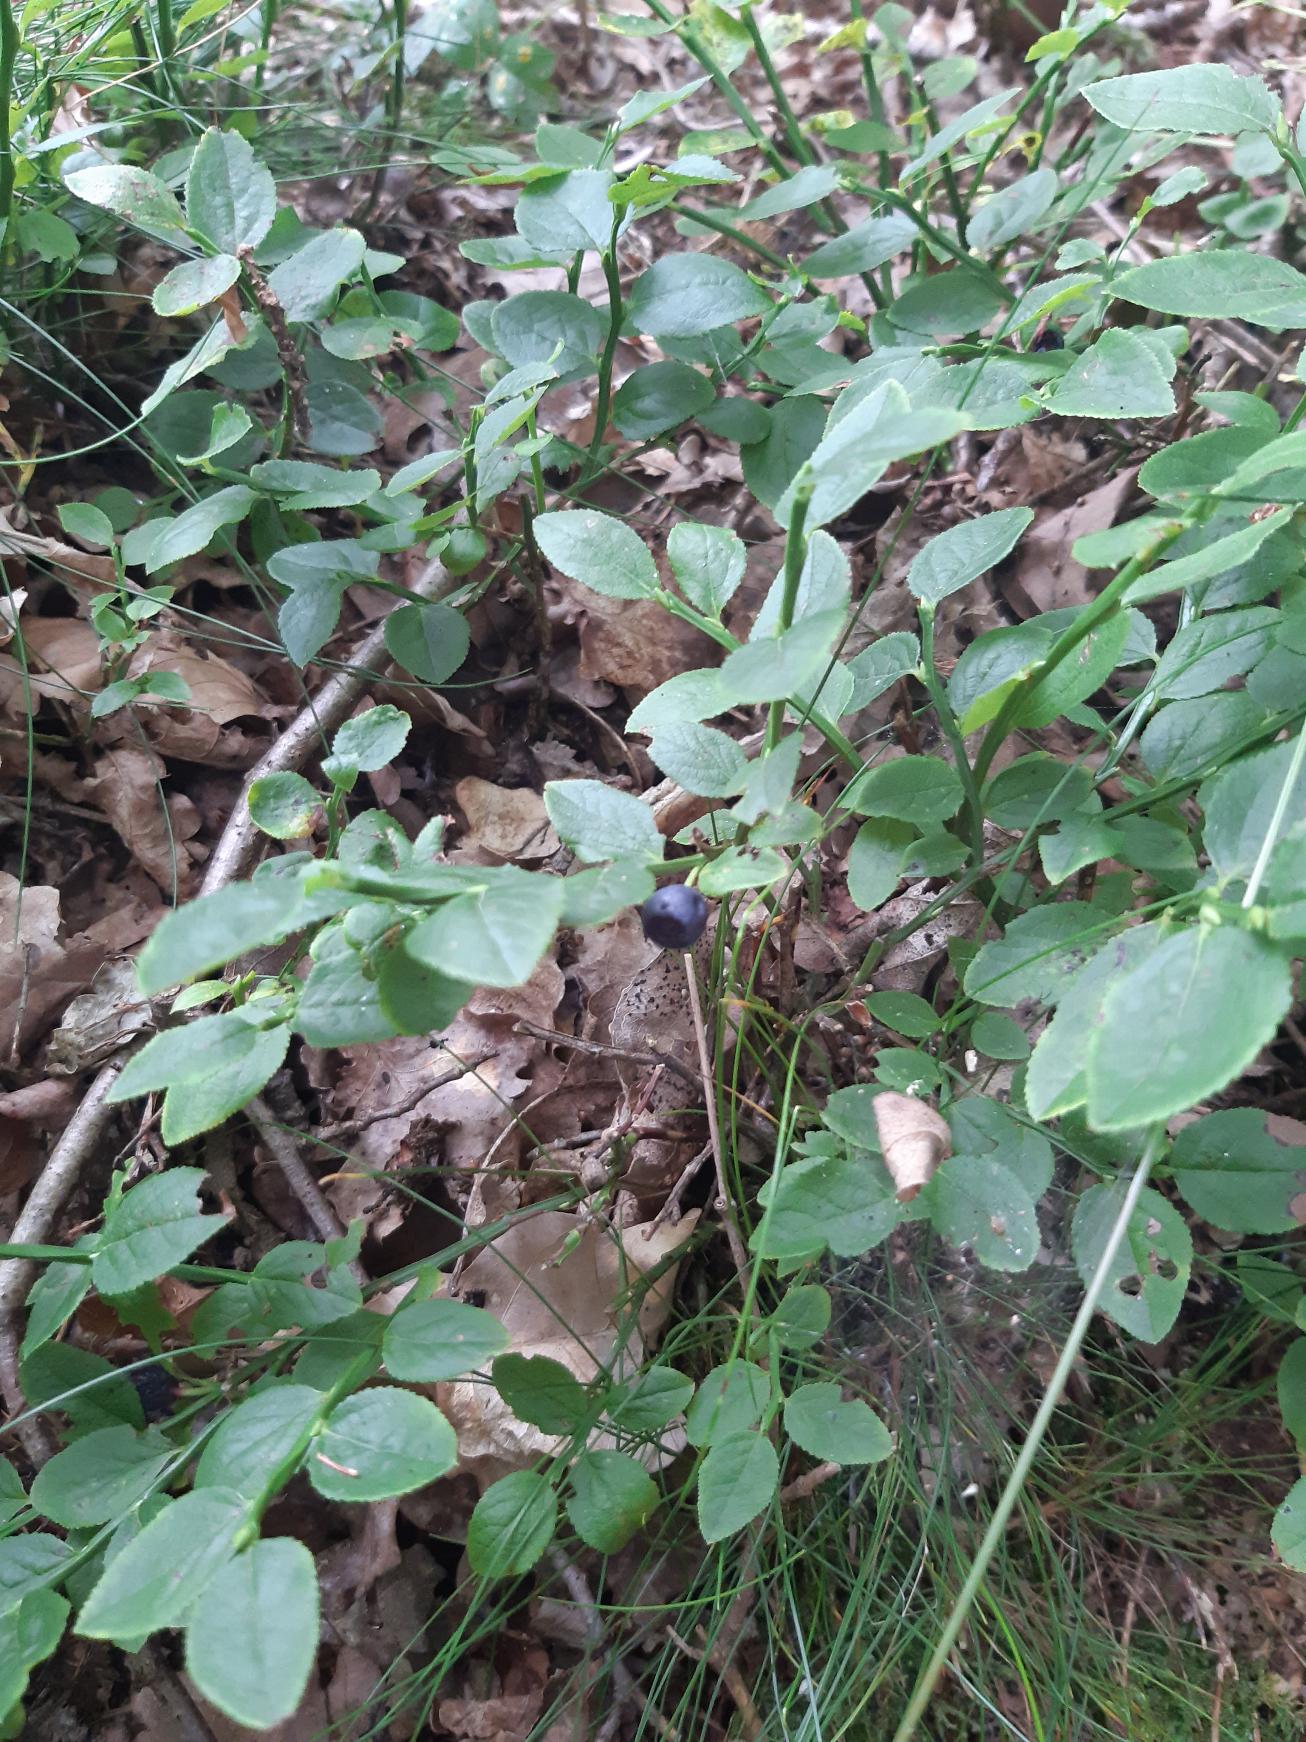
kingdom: Plantae
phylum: Tracheophyta
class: Magnoliopsida
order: Ericales
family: Ericaceae
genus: Vaccinium
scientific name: Vaccinium myrtillus
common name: Blåbær
